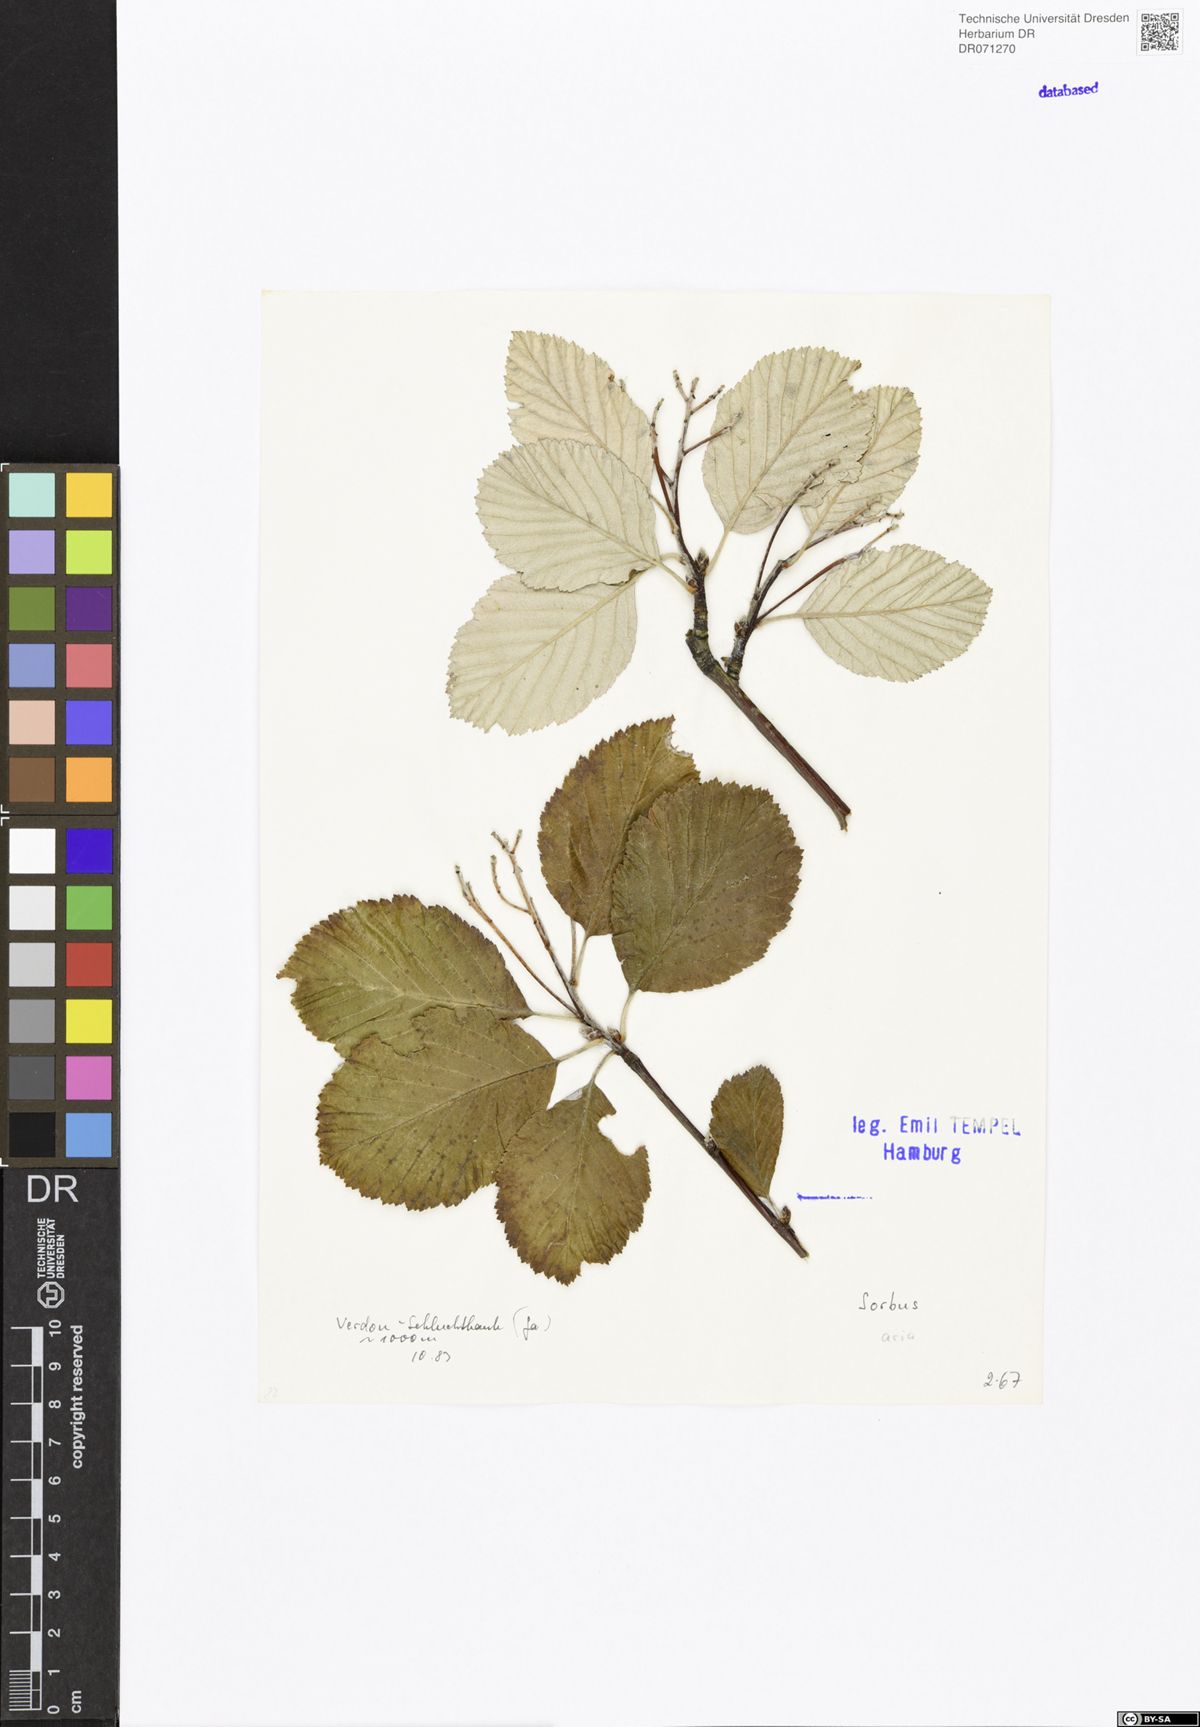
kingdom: Plantae
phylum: Tracheophyta
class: Magnoliopsida
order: Rosales
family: Rosaceae
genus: Aria
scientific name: Aria edulis
